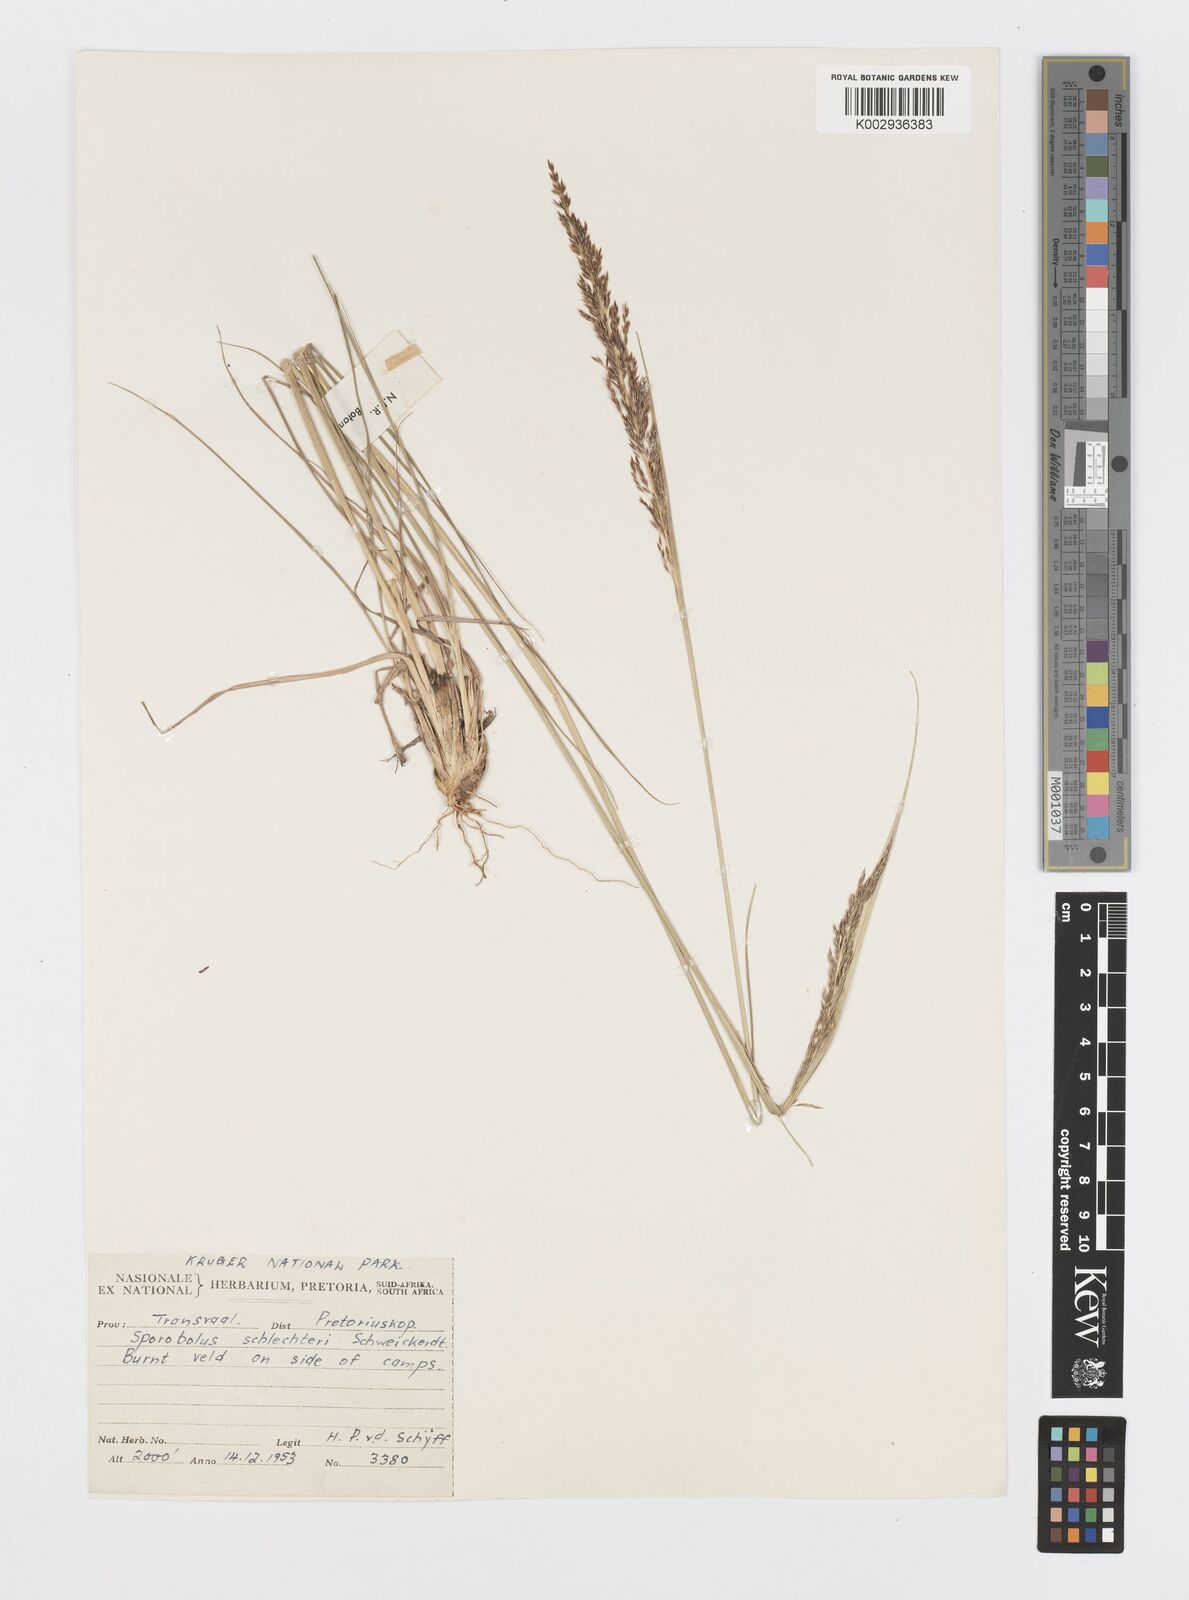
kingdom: Plantae
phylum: Tracheophyta
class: Liliopsida
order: Poales
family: Poaceae
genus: Sporobolus
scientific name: Sporobolus sanguineus
